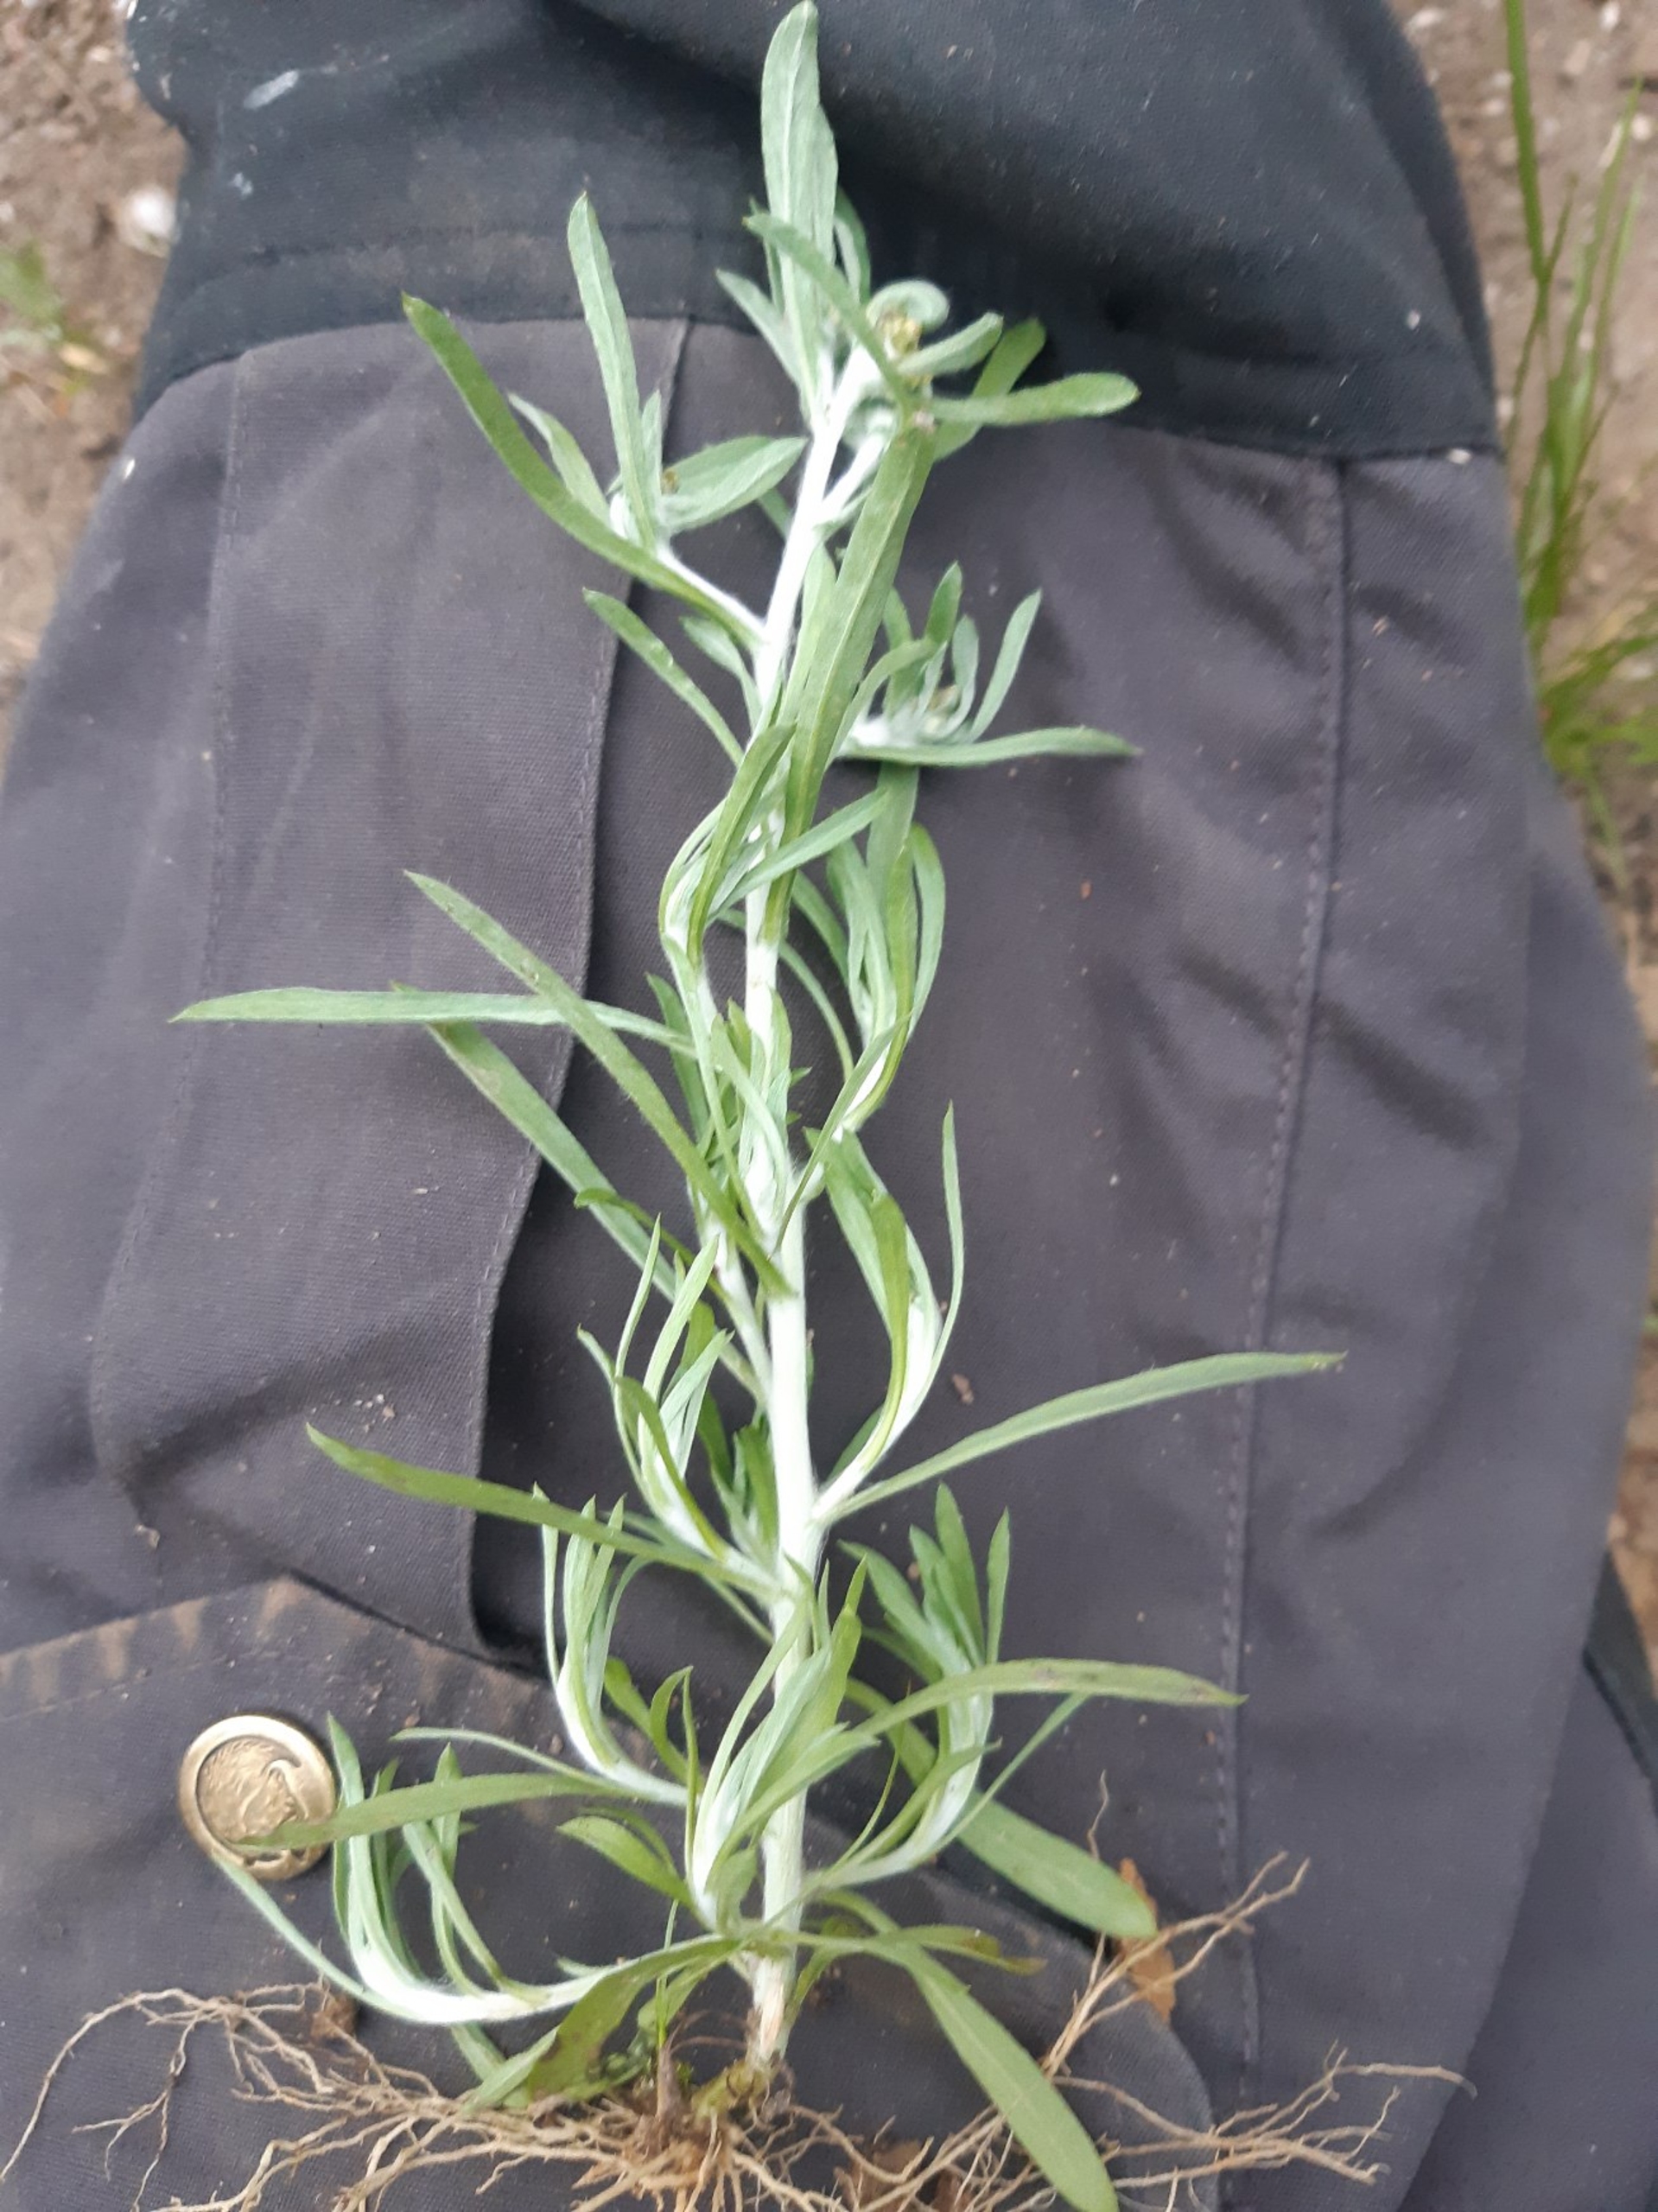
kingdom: Plantae
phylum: Tracheophyta
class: Magnoliopsida
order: Asterales
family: Asteraceae
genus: Gnaphalium
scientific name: Gnaphalium uliginosum
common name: Sump-evighedsblomst
